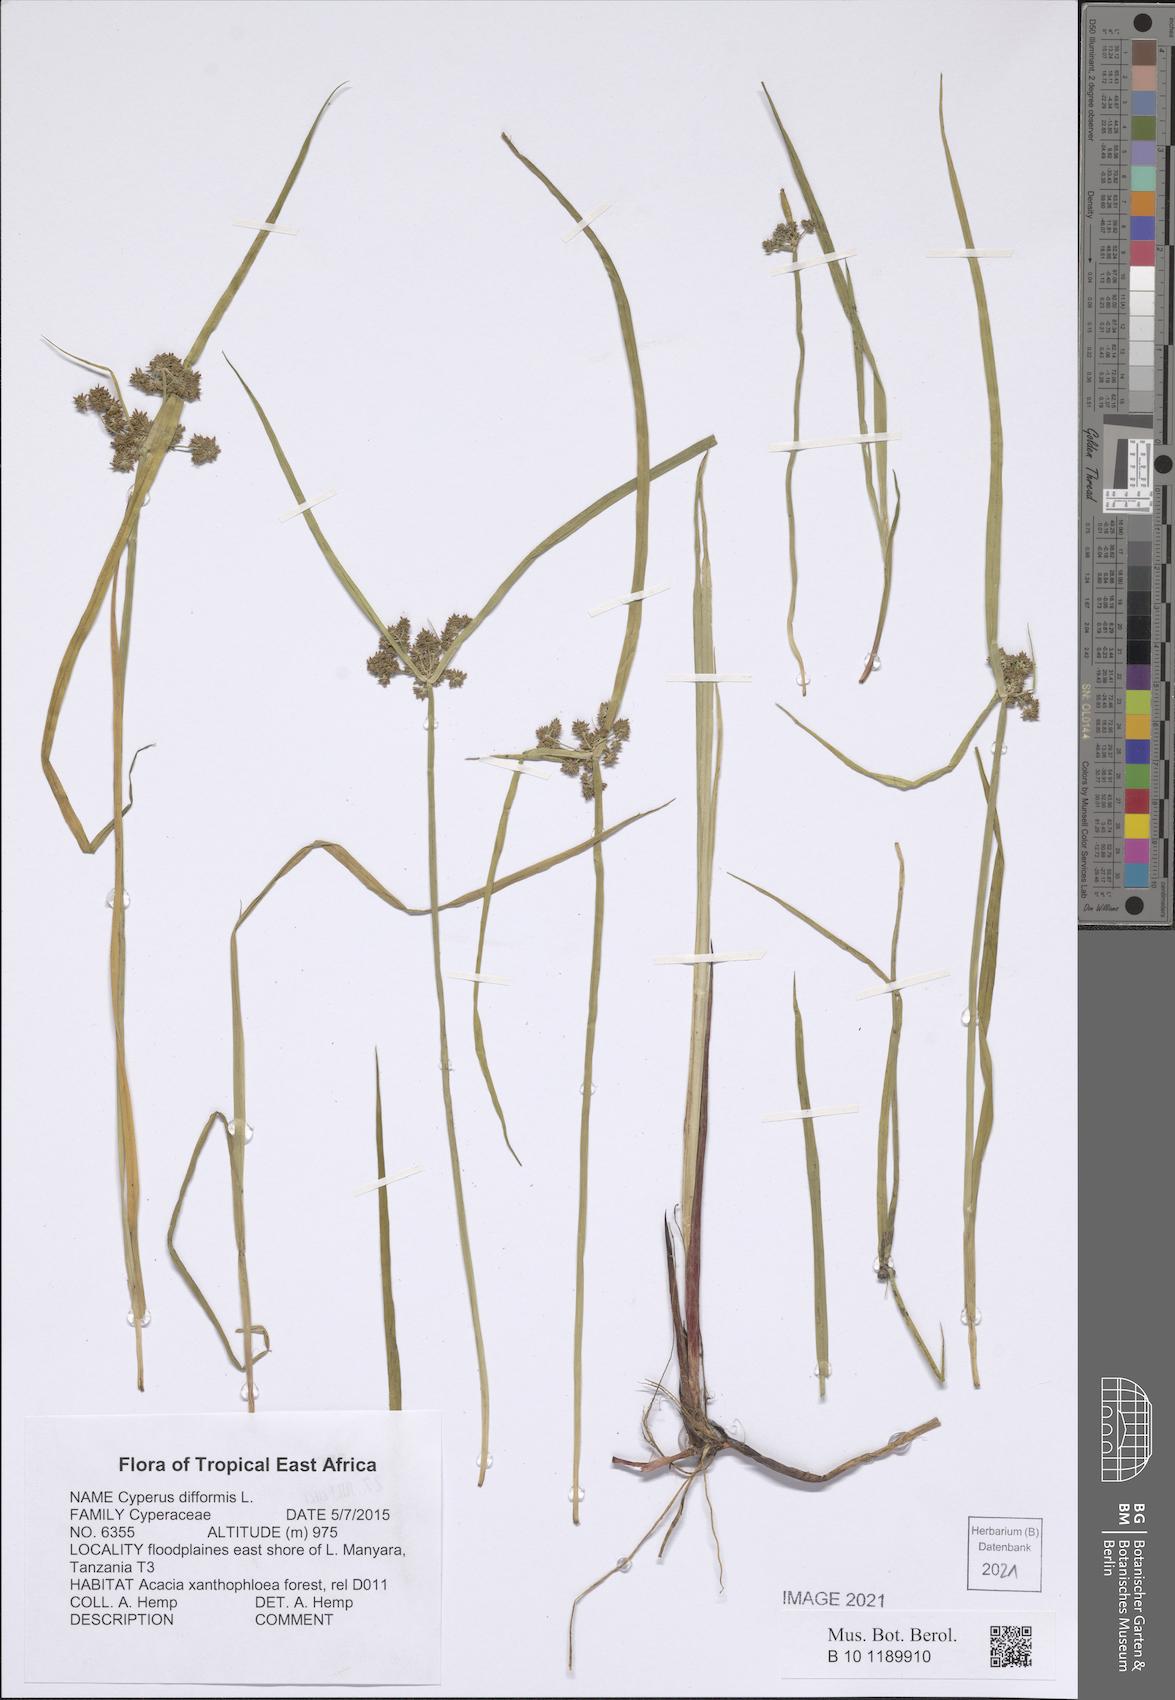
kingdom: Plantae
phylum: Tracheophyta
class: Liliopsida
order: Poales
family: Cyperaceae
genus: Cyperus
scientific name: Cyperus difformis
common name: Variable flatsedge
